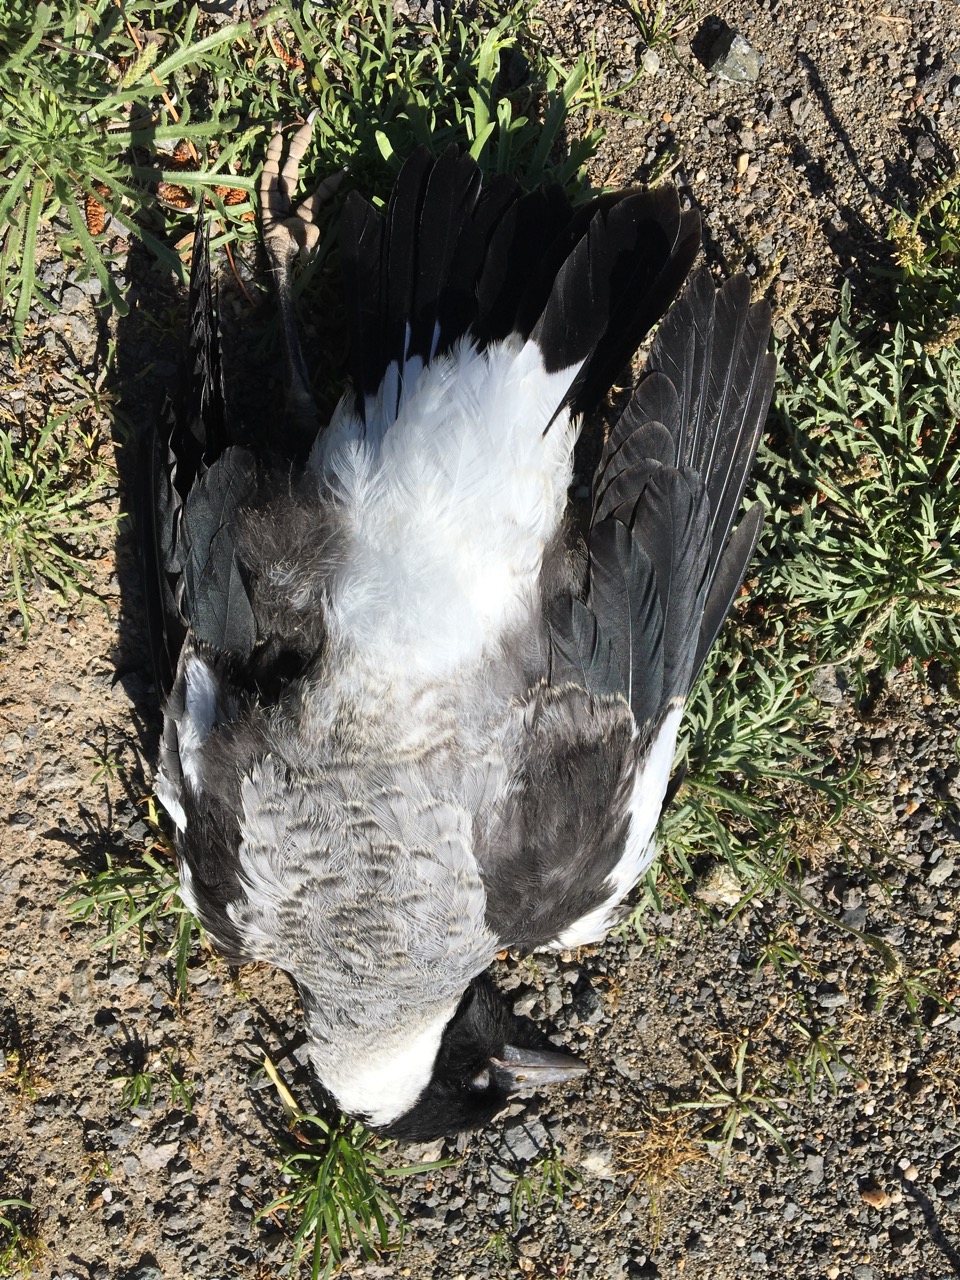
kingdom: Animalia
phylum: Chordata
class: Aves
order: Passeriformes
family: Cracticidae
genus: Gymnorhina
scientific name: Gymnorhina tibicen
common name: Australian magpie
